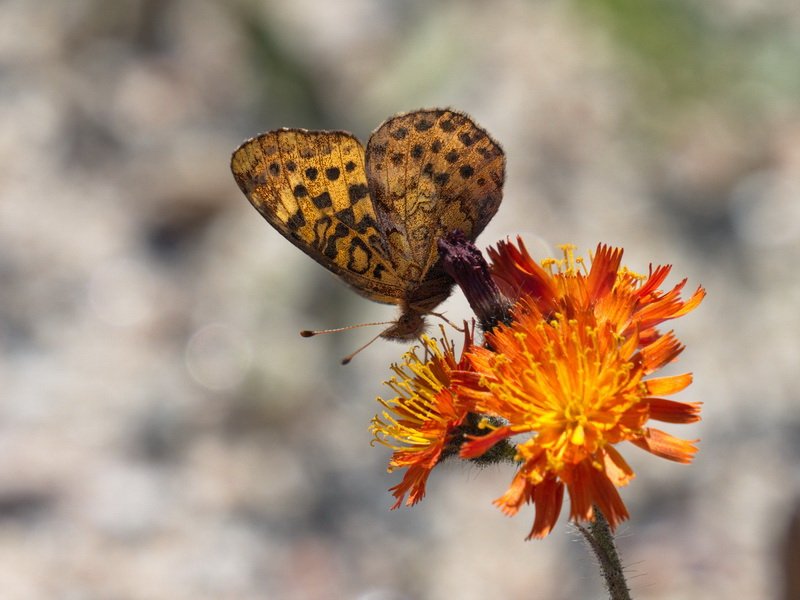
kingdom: Animalia
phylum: Arthropoda
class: Insecta
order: Lepidoptera
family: Nymphalidae
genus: Clossiana
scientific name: Clossiana toddi
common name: Meadow Fritillary
